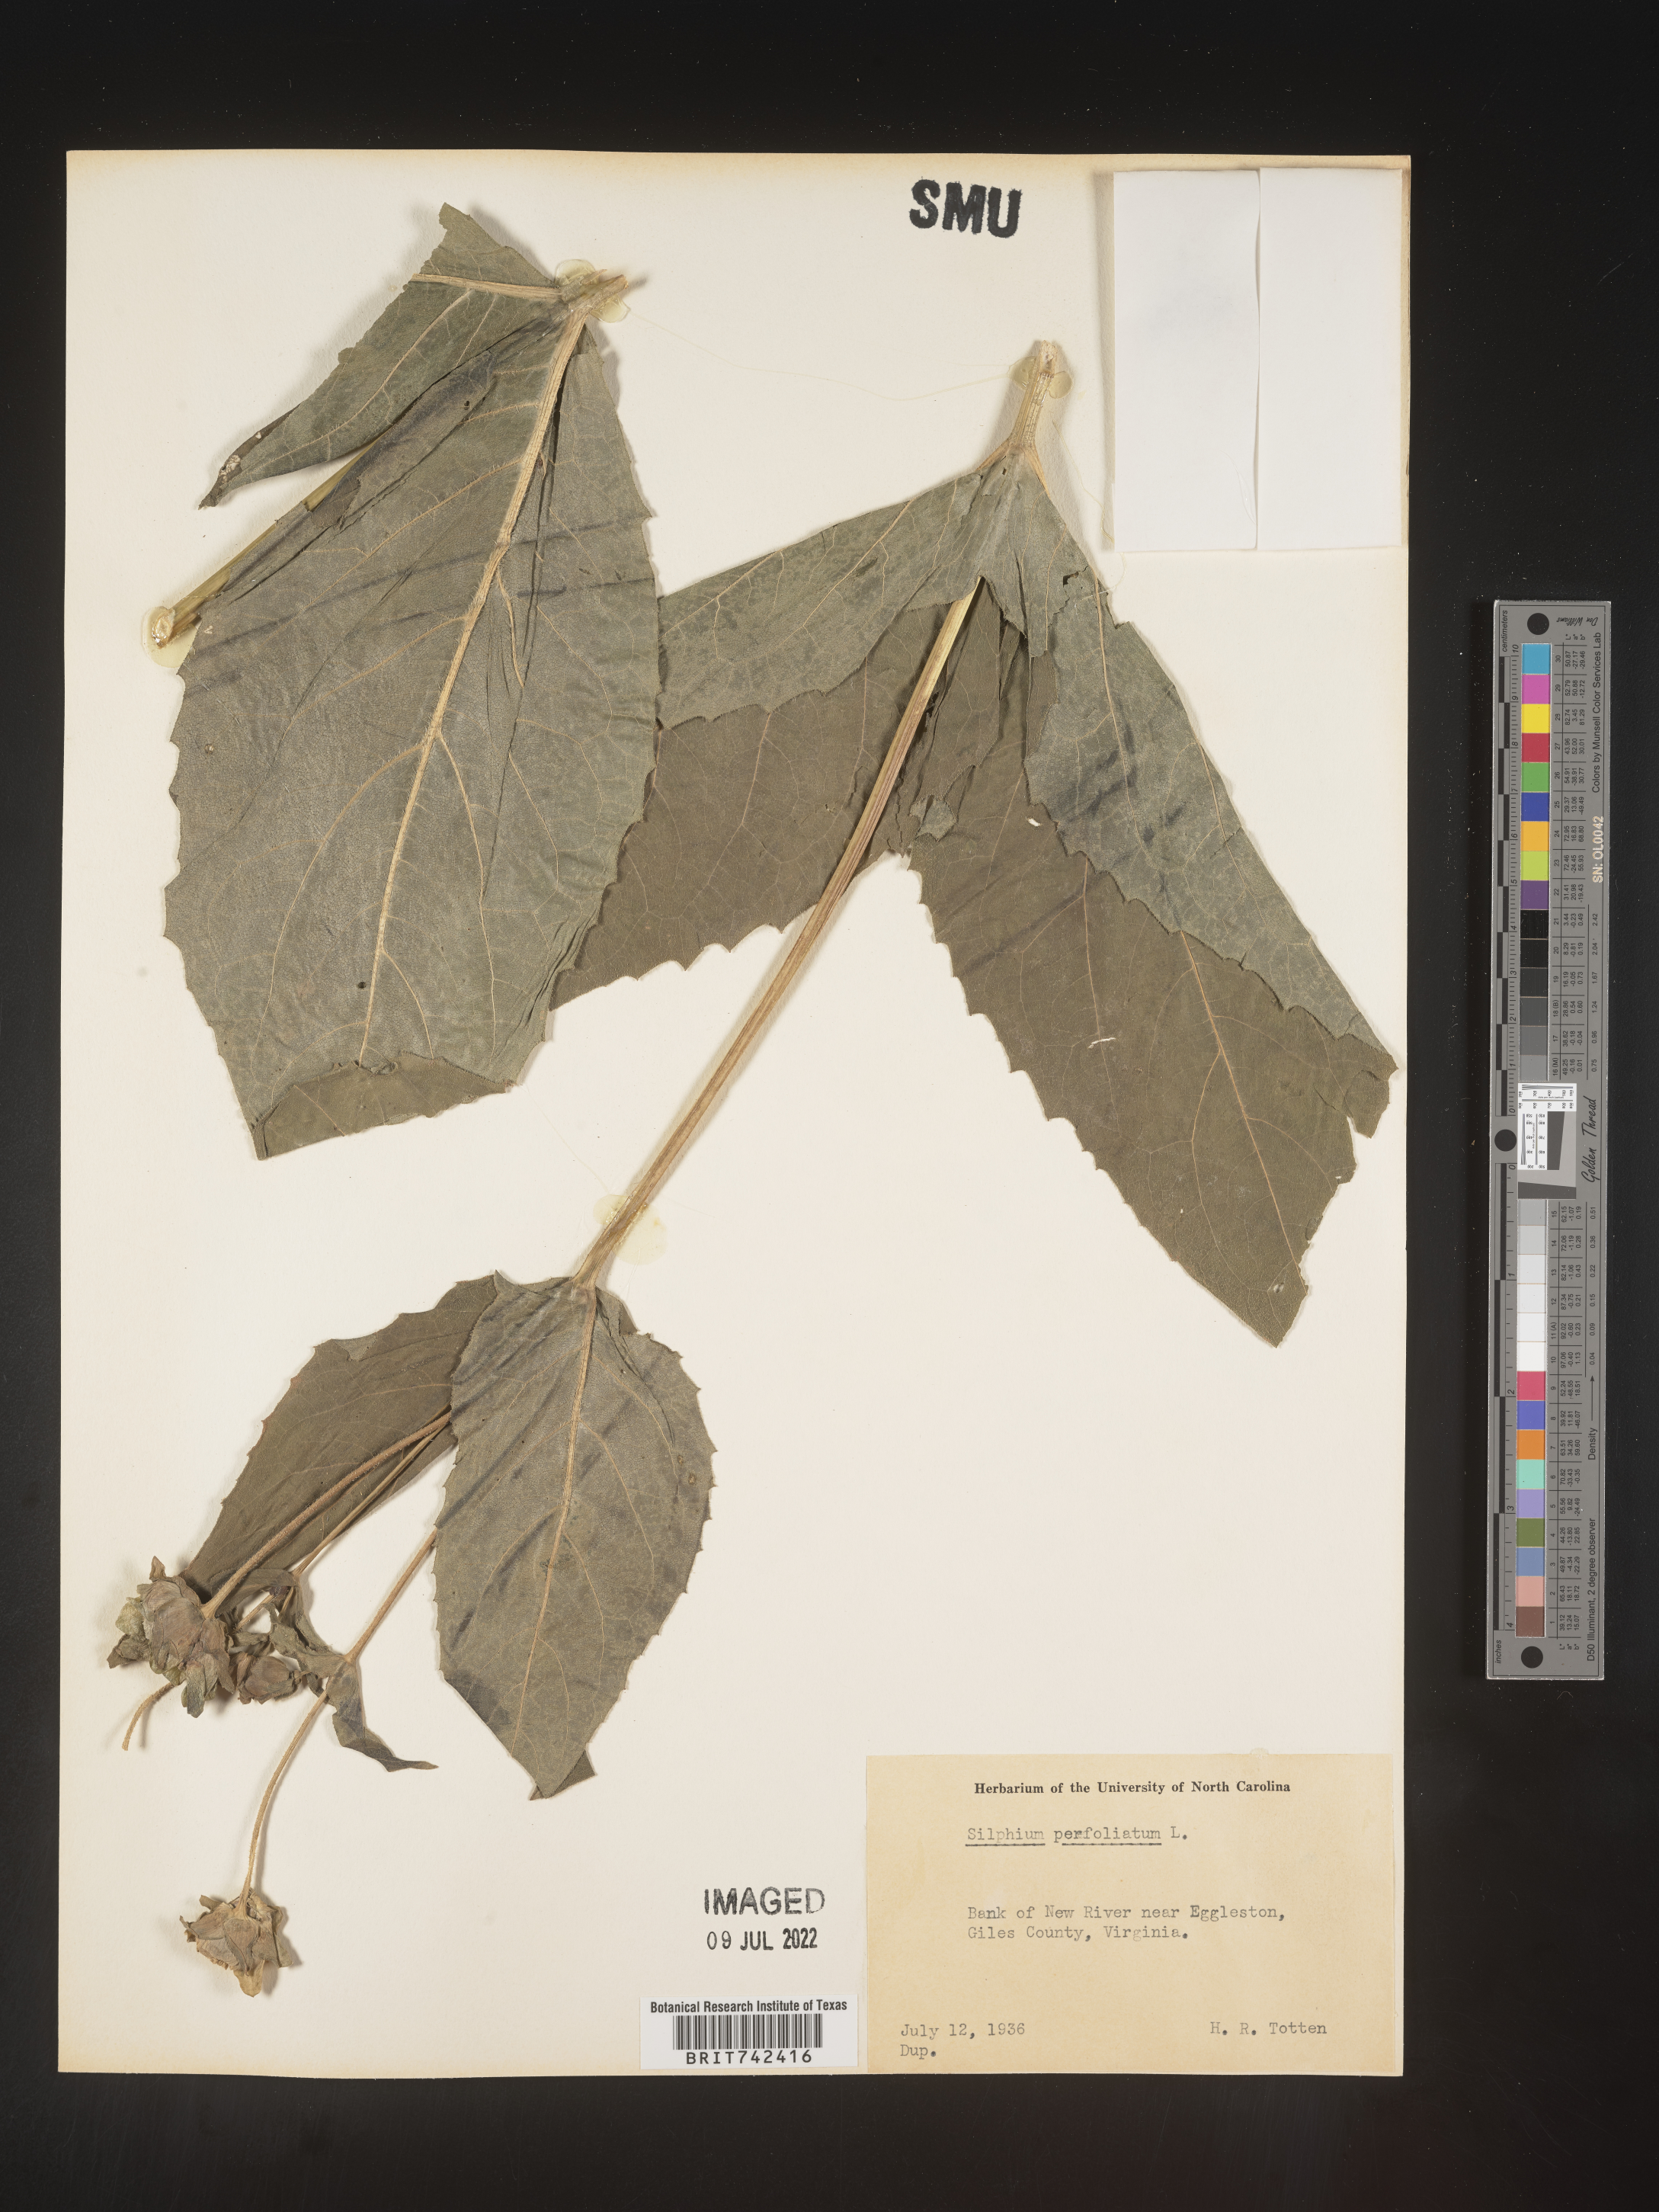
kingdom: Plantae
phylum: Tracheophyta
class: Magnoliopsida
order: Asterales
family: Asteraceae
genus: Silphium
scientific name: Silphium perfoliatum
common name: Cup-plant
